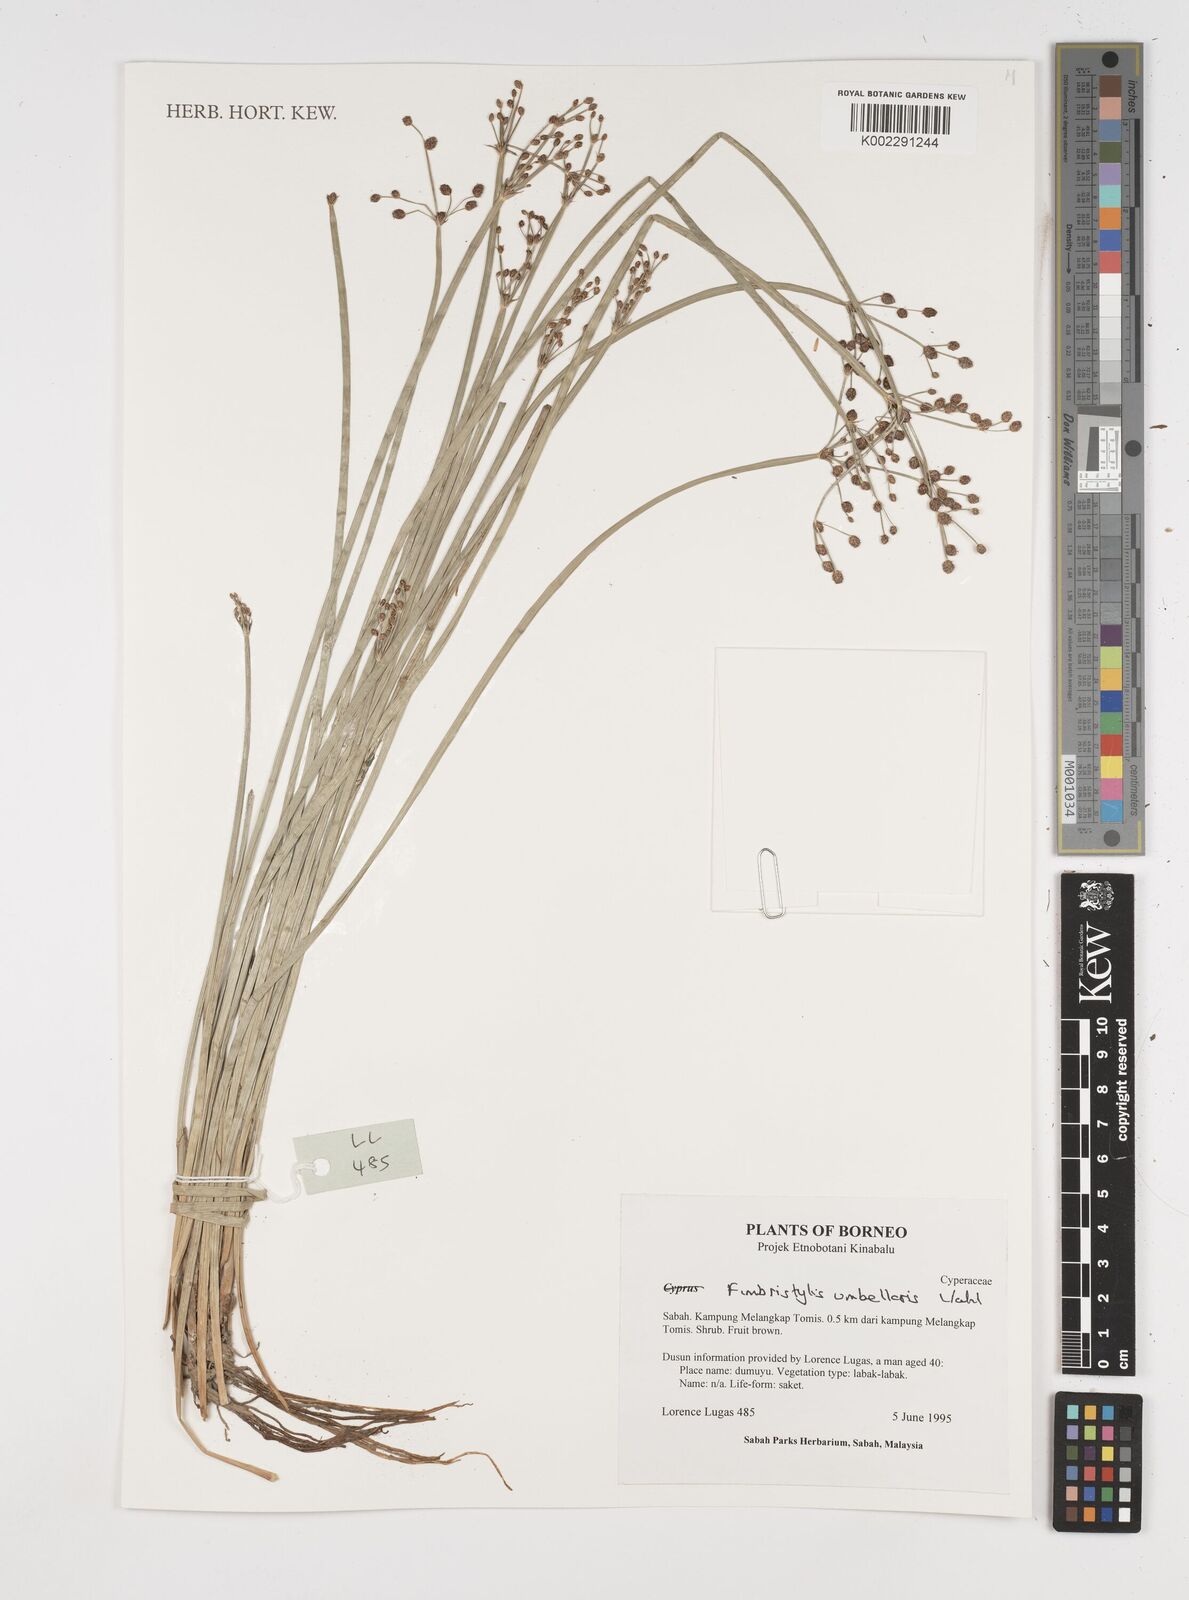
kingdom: Plantae
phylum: Tracheophyta
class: Liliopsida
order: Poales
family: Cyperaceae
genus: Fimbristylis
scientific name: Fimbristylis umbellaris
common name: Globular fimbristylis
